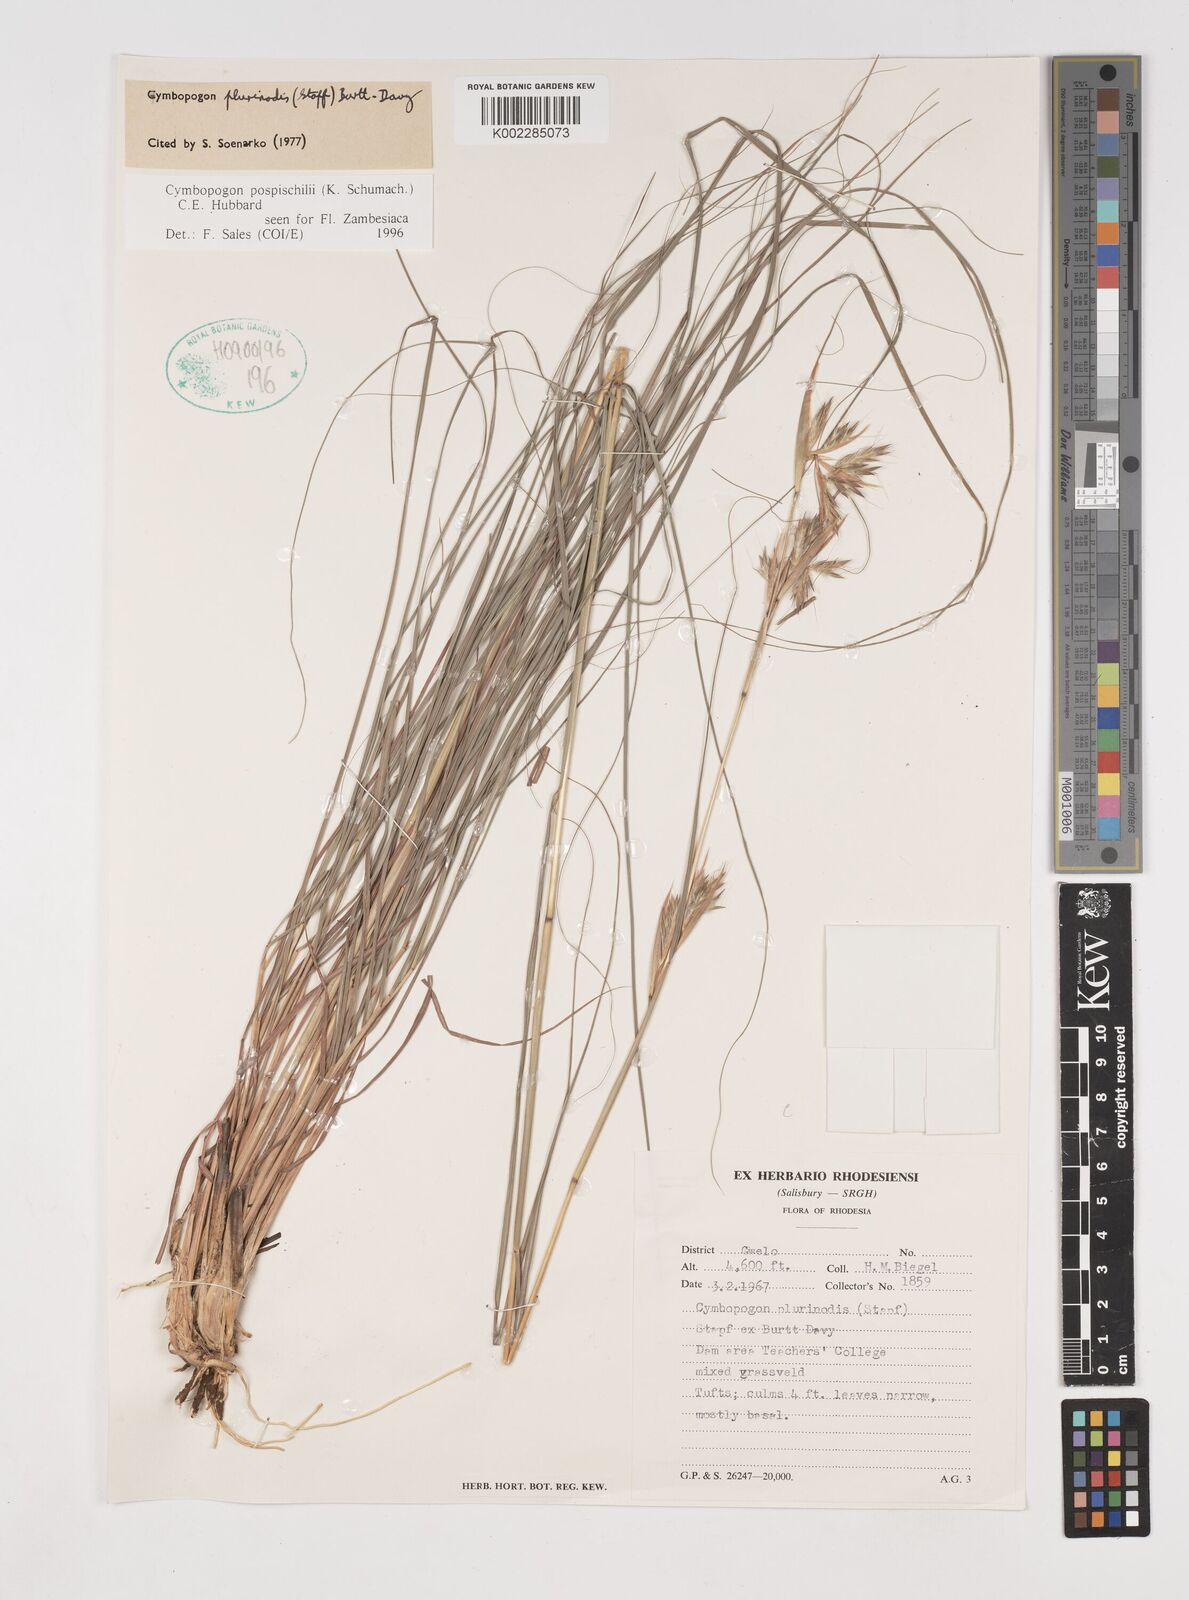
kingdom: Plantae
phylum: Tracheophyta
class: Liliopsida
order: Poales
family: Poaceae
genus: Cymbopogon
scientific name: Cymbopogon pospischilii
